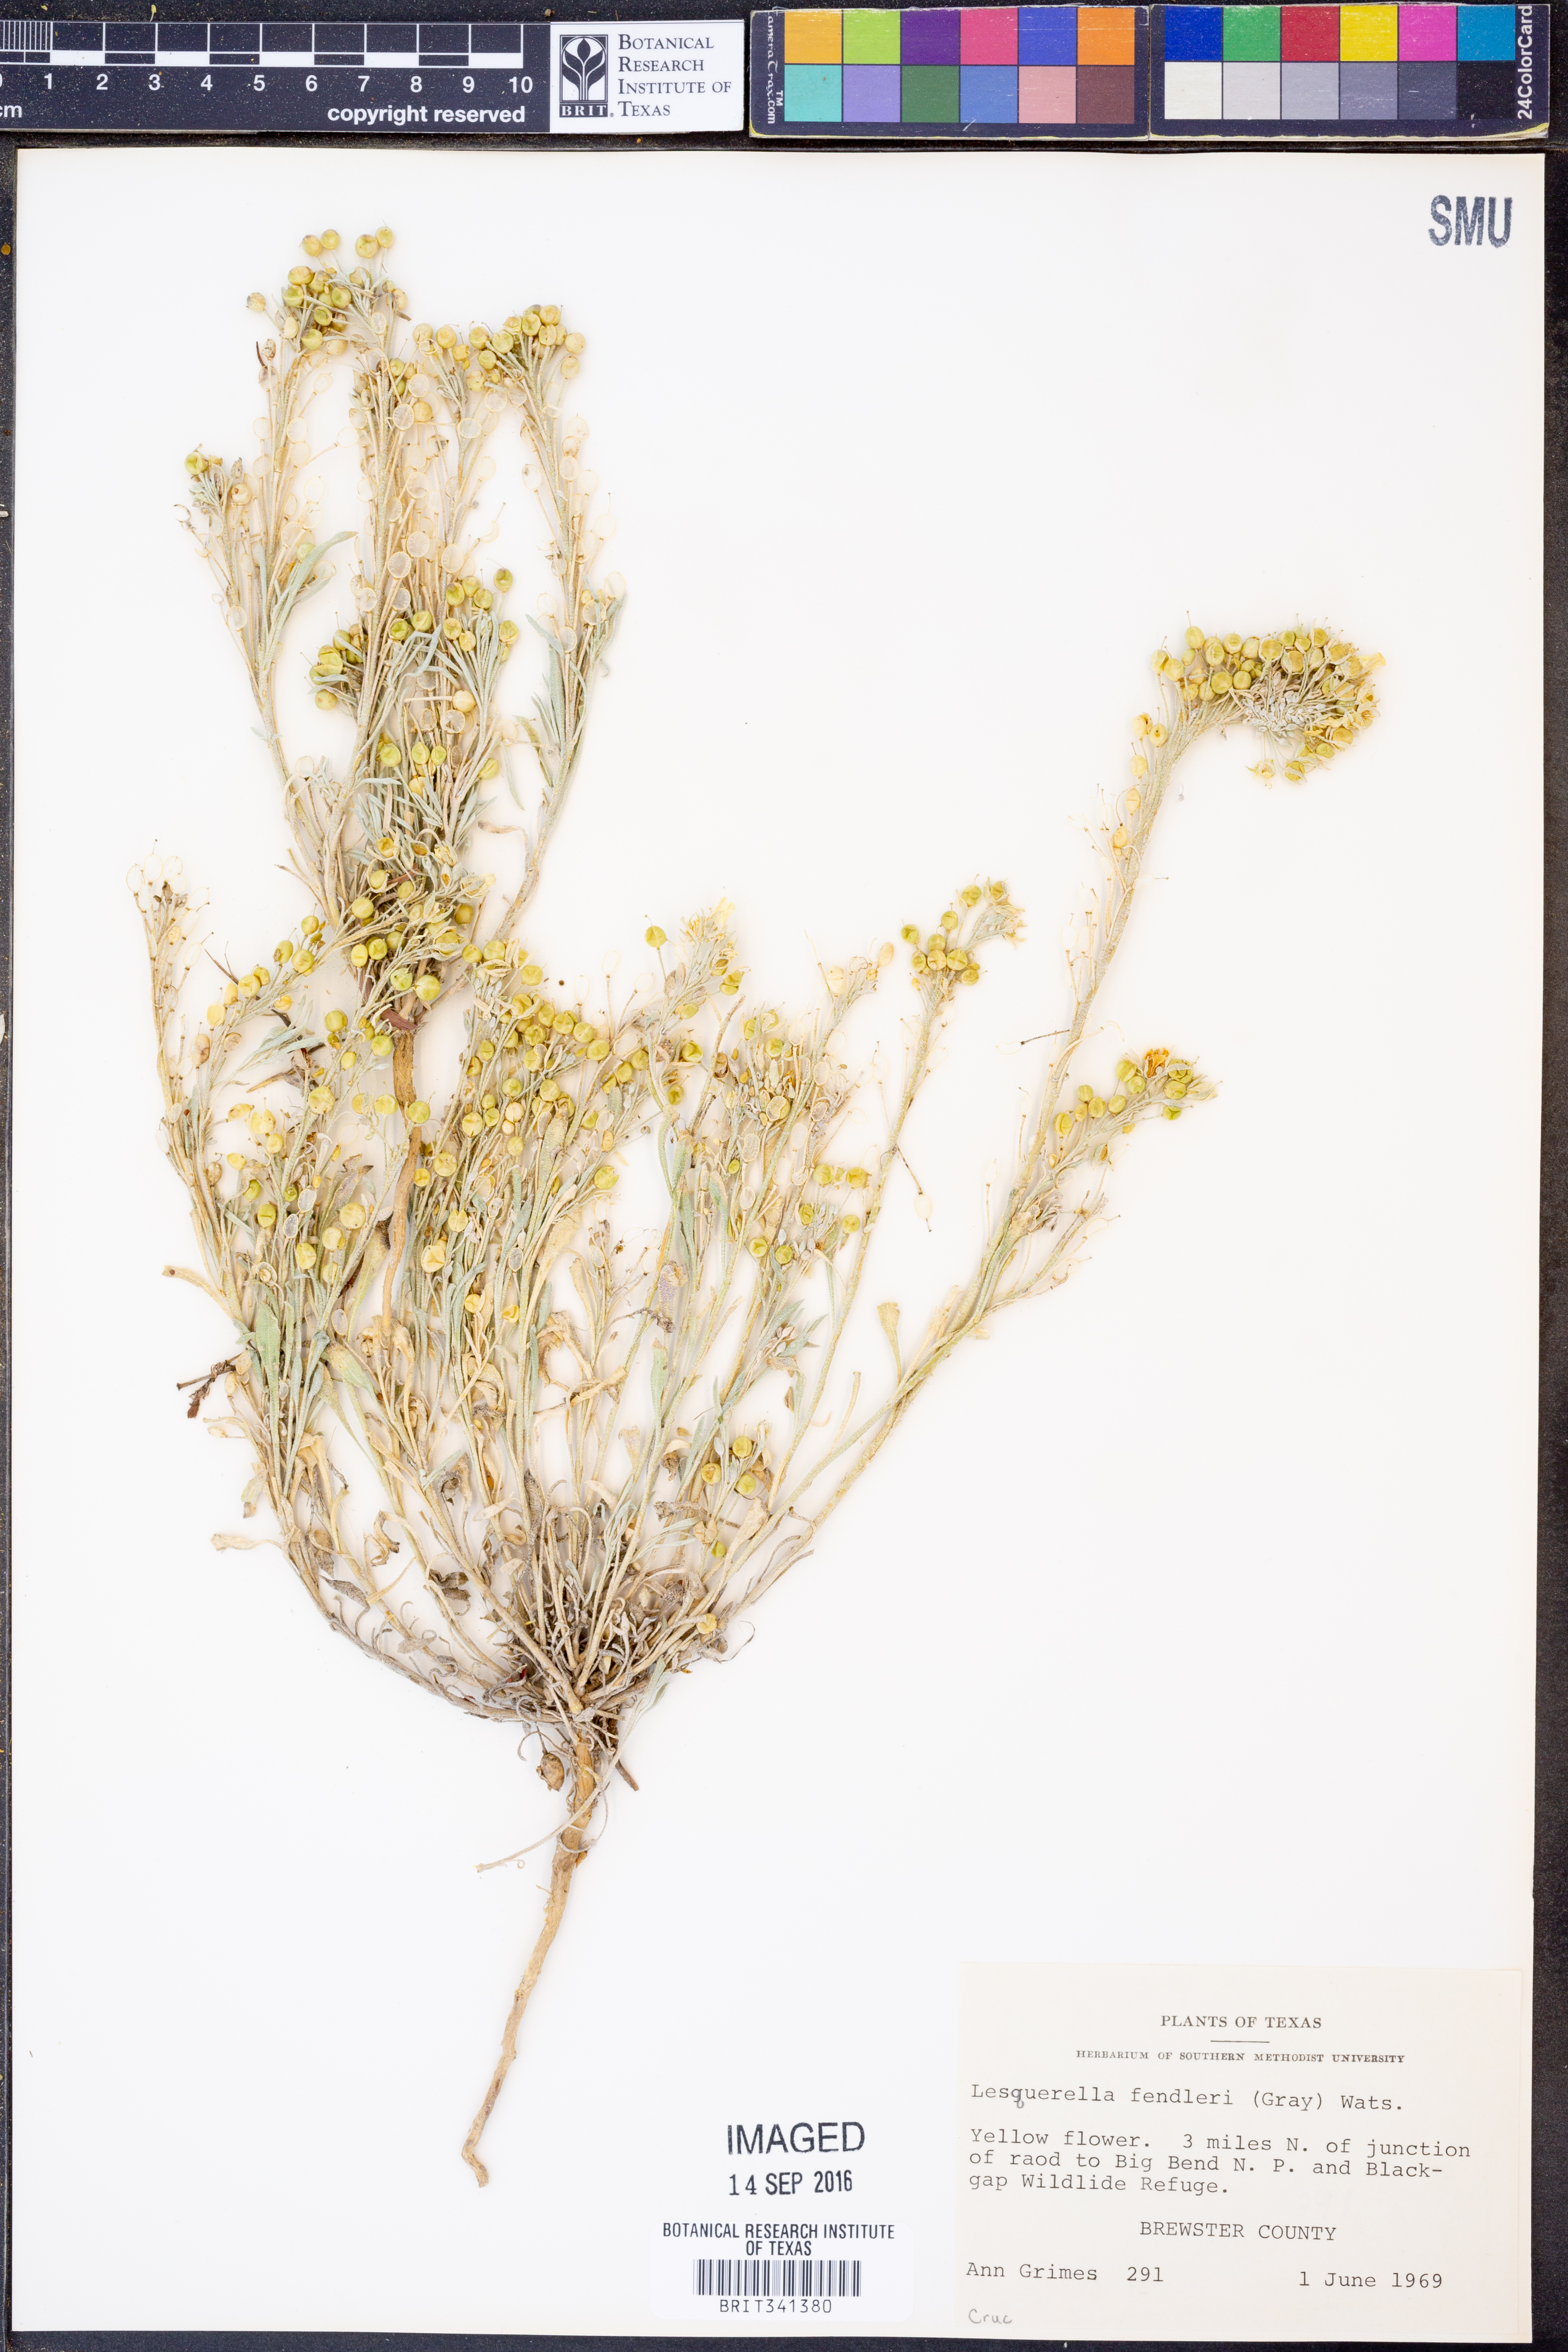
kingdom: Plantae
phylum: Tracheophyta
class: Magnoliopsida
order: Brassicales
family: Brassicaceae
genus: Physaria
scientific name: Physaria fendleri
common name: Fendler's bladderpod
